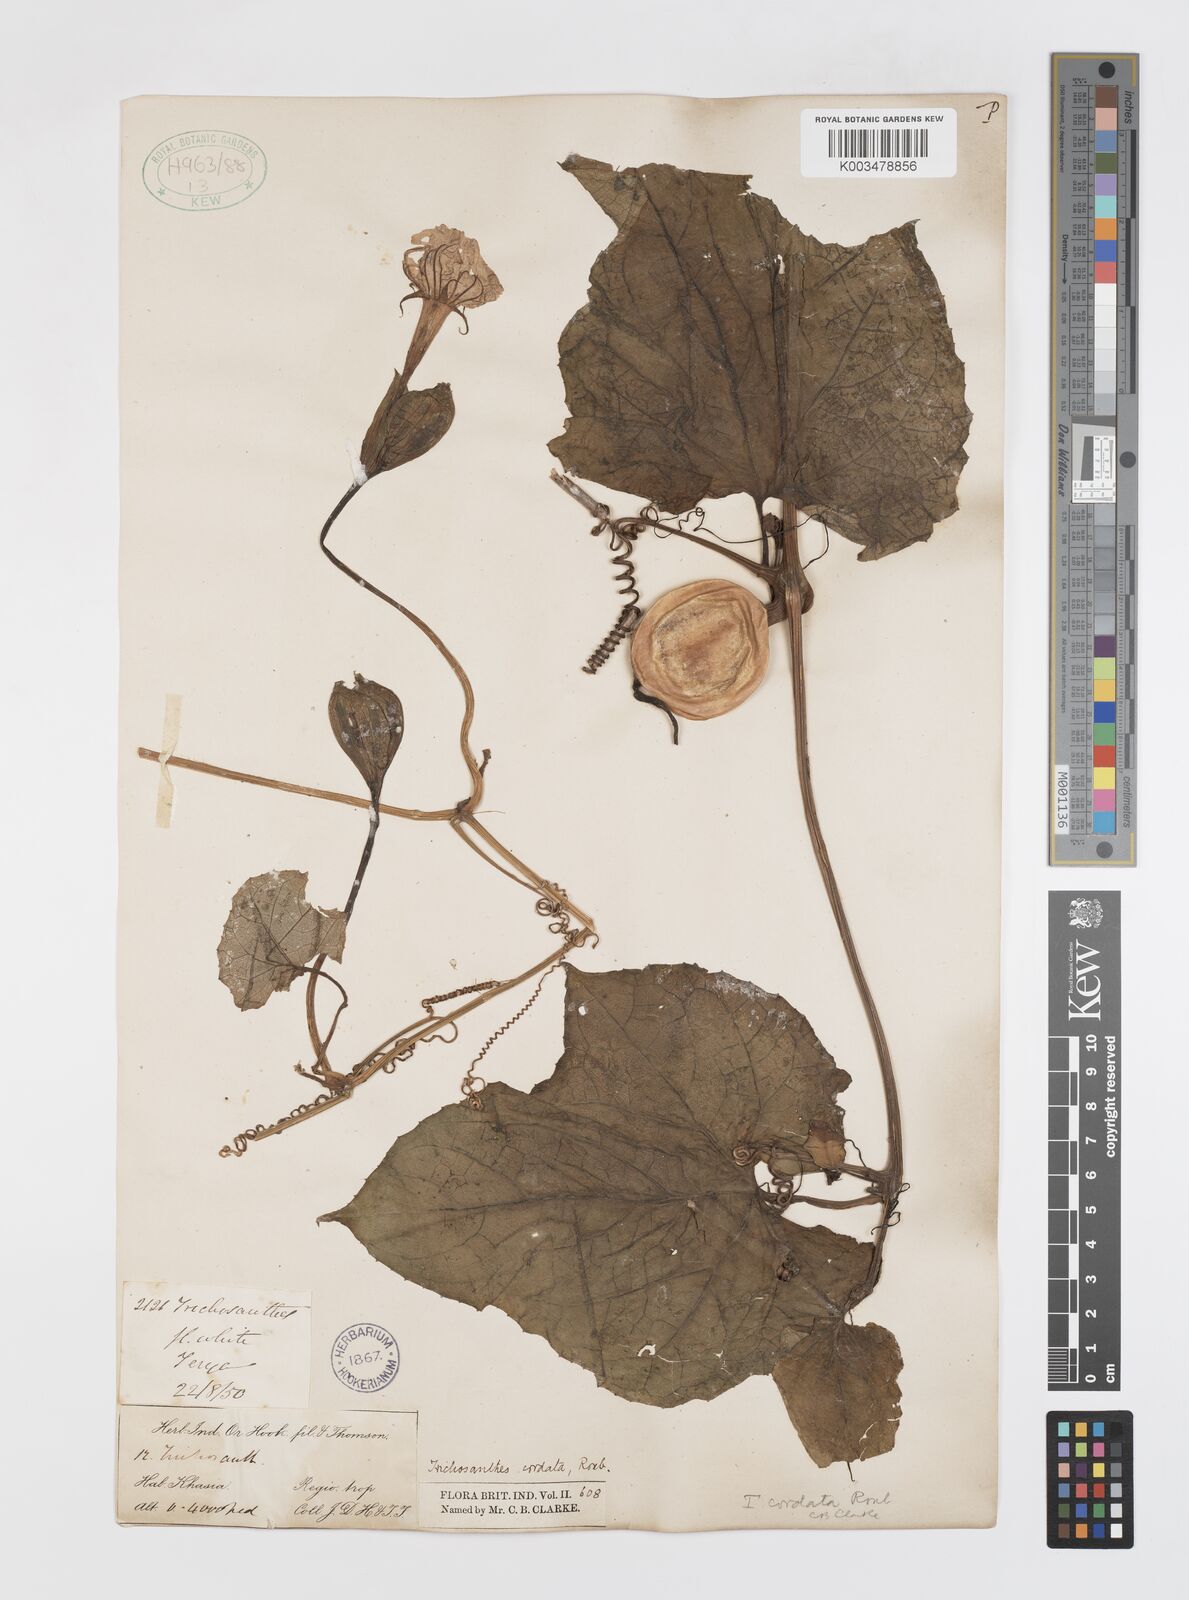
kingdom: Plantae
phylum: Tracheophyta
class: Magnoliopsida
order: Cucurbitales
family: Cucurbitaceae
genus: Trichosanthes
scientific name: Trichosanthes cordata
